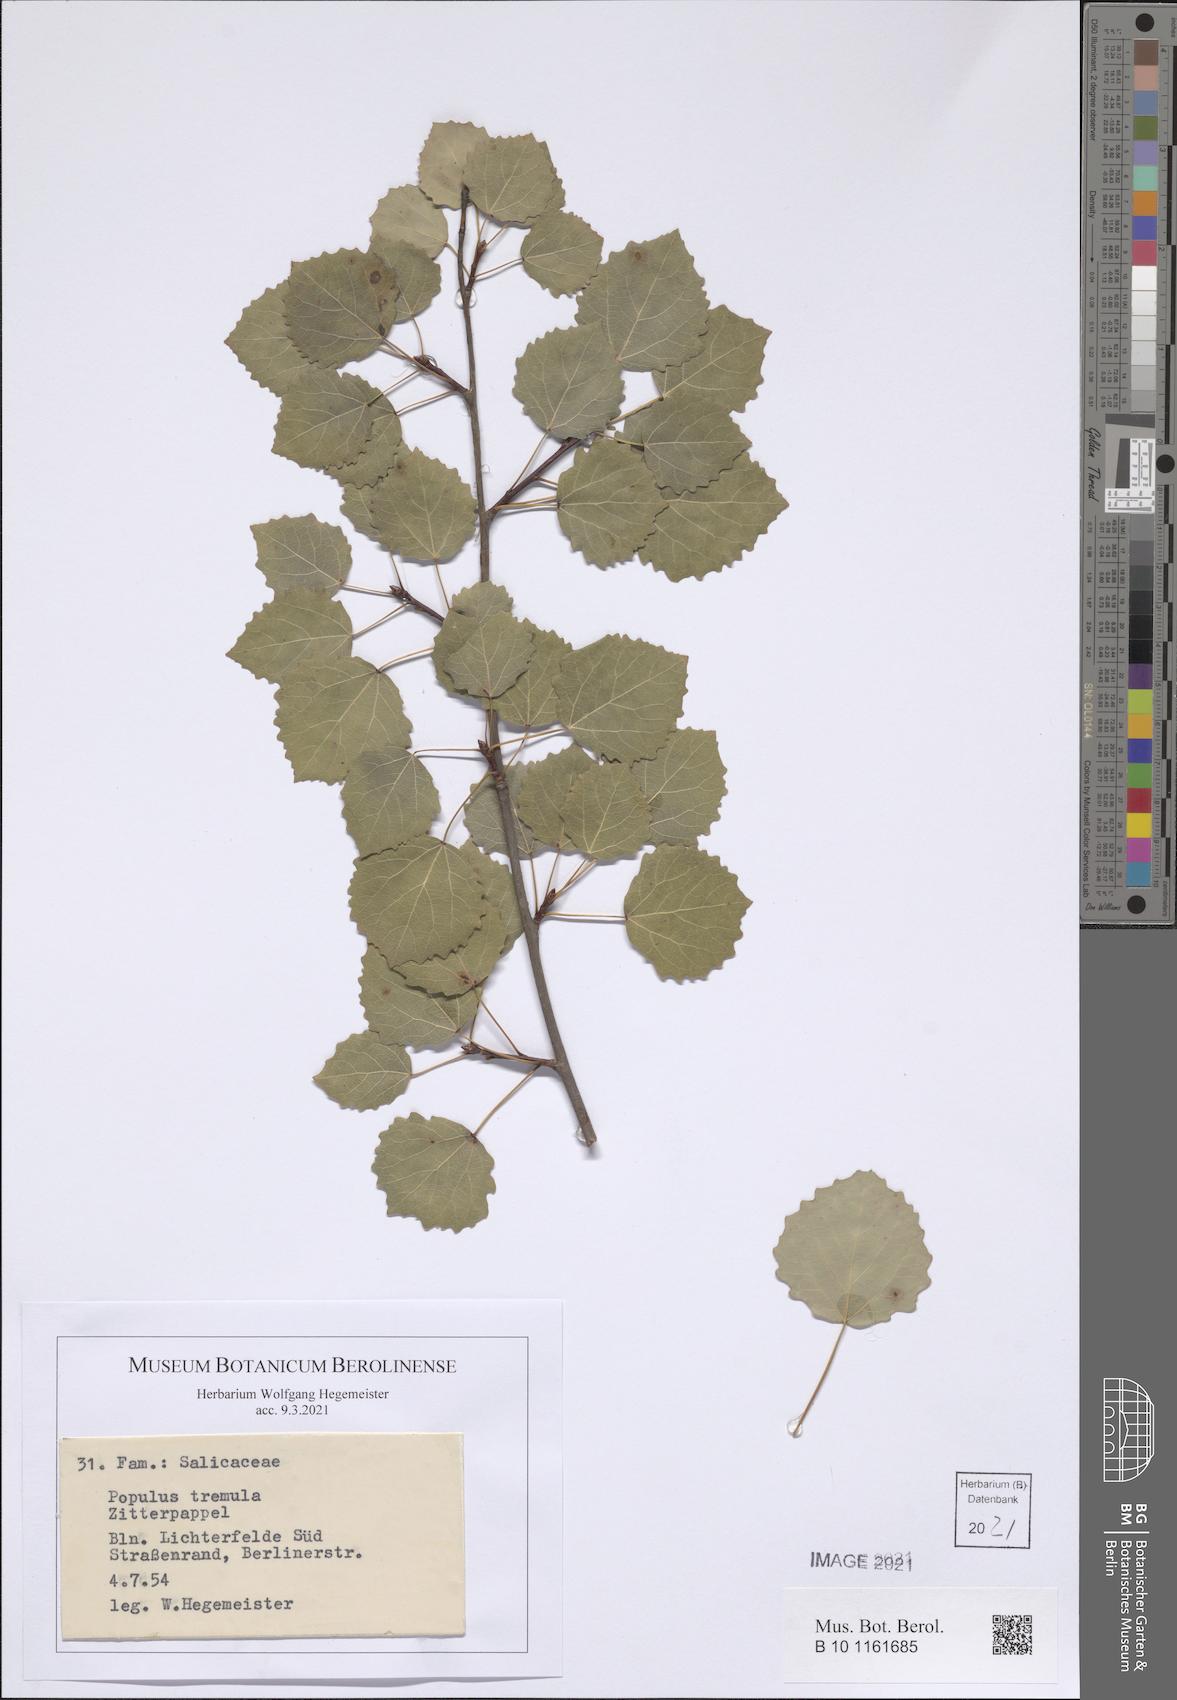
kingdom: Plantae
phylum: Tracheophyta
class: Magnoliopsida
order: Malpighiales
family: Salicaceae
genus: Populus
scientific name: Populus tremula
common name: European aspen
